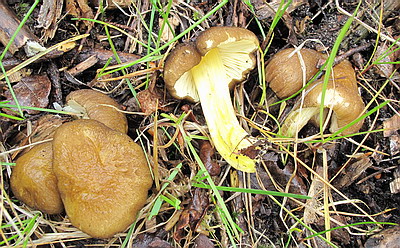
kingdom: Fungi
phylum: Basidiomycota
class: Agaricomycetes
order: Agaricales
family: Pluteaceae
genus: Pluteus
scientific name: Pluteus romellii
